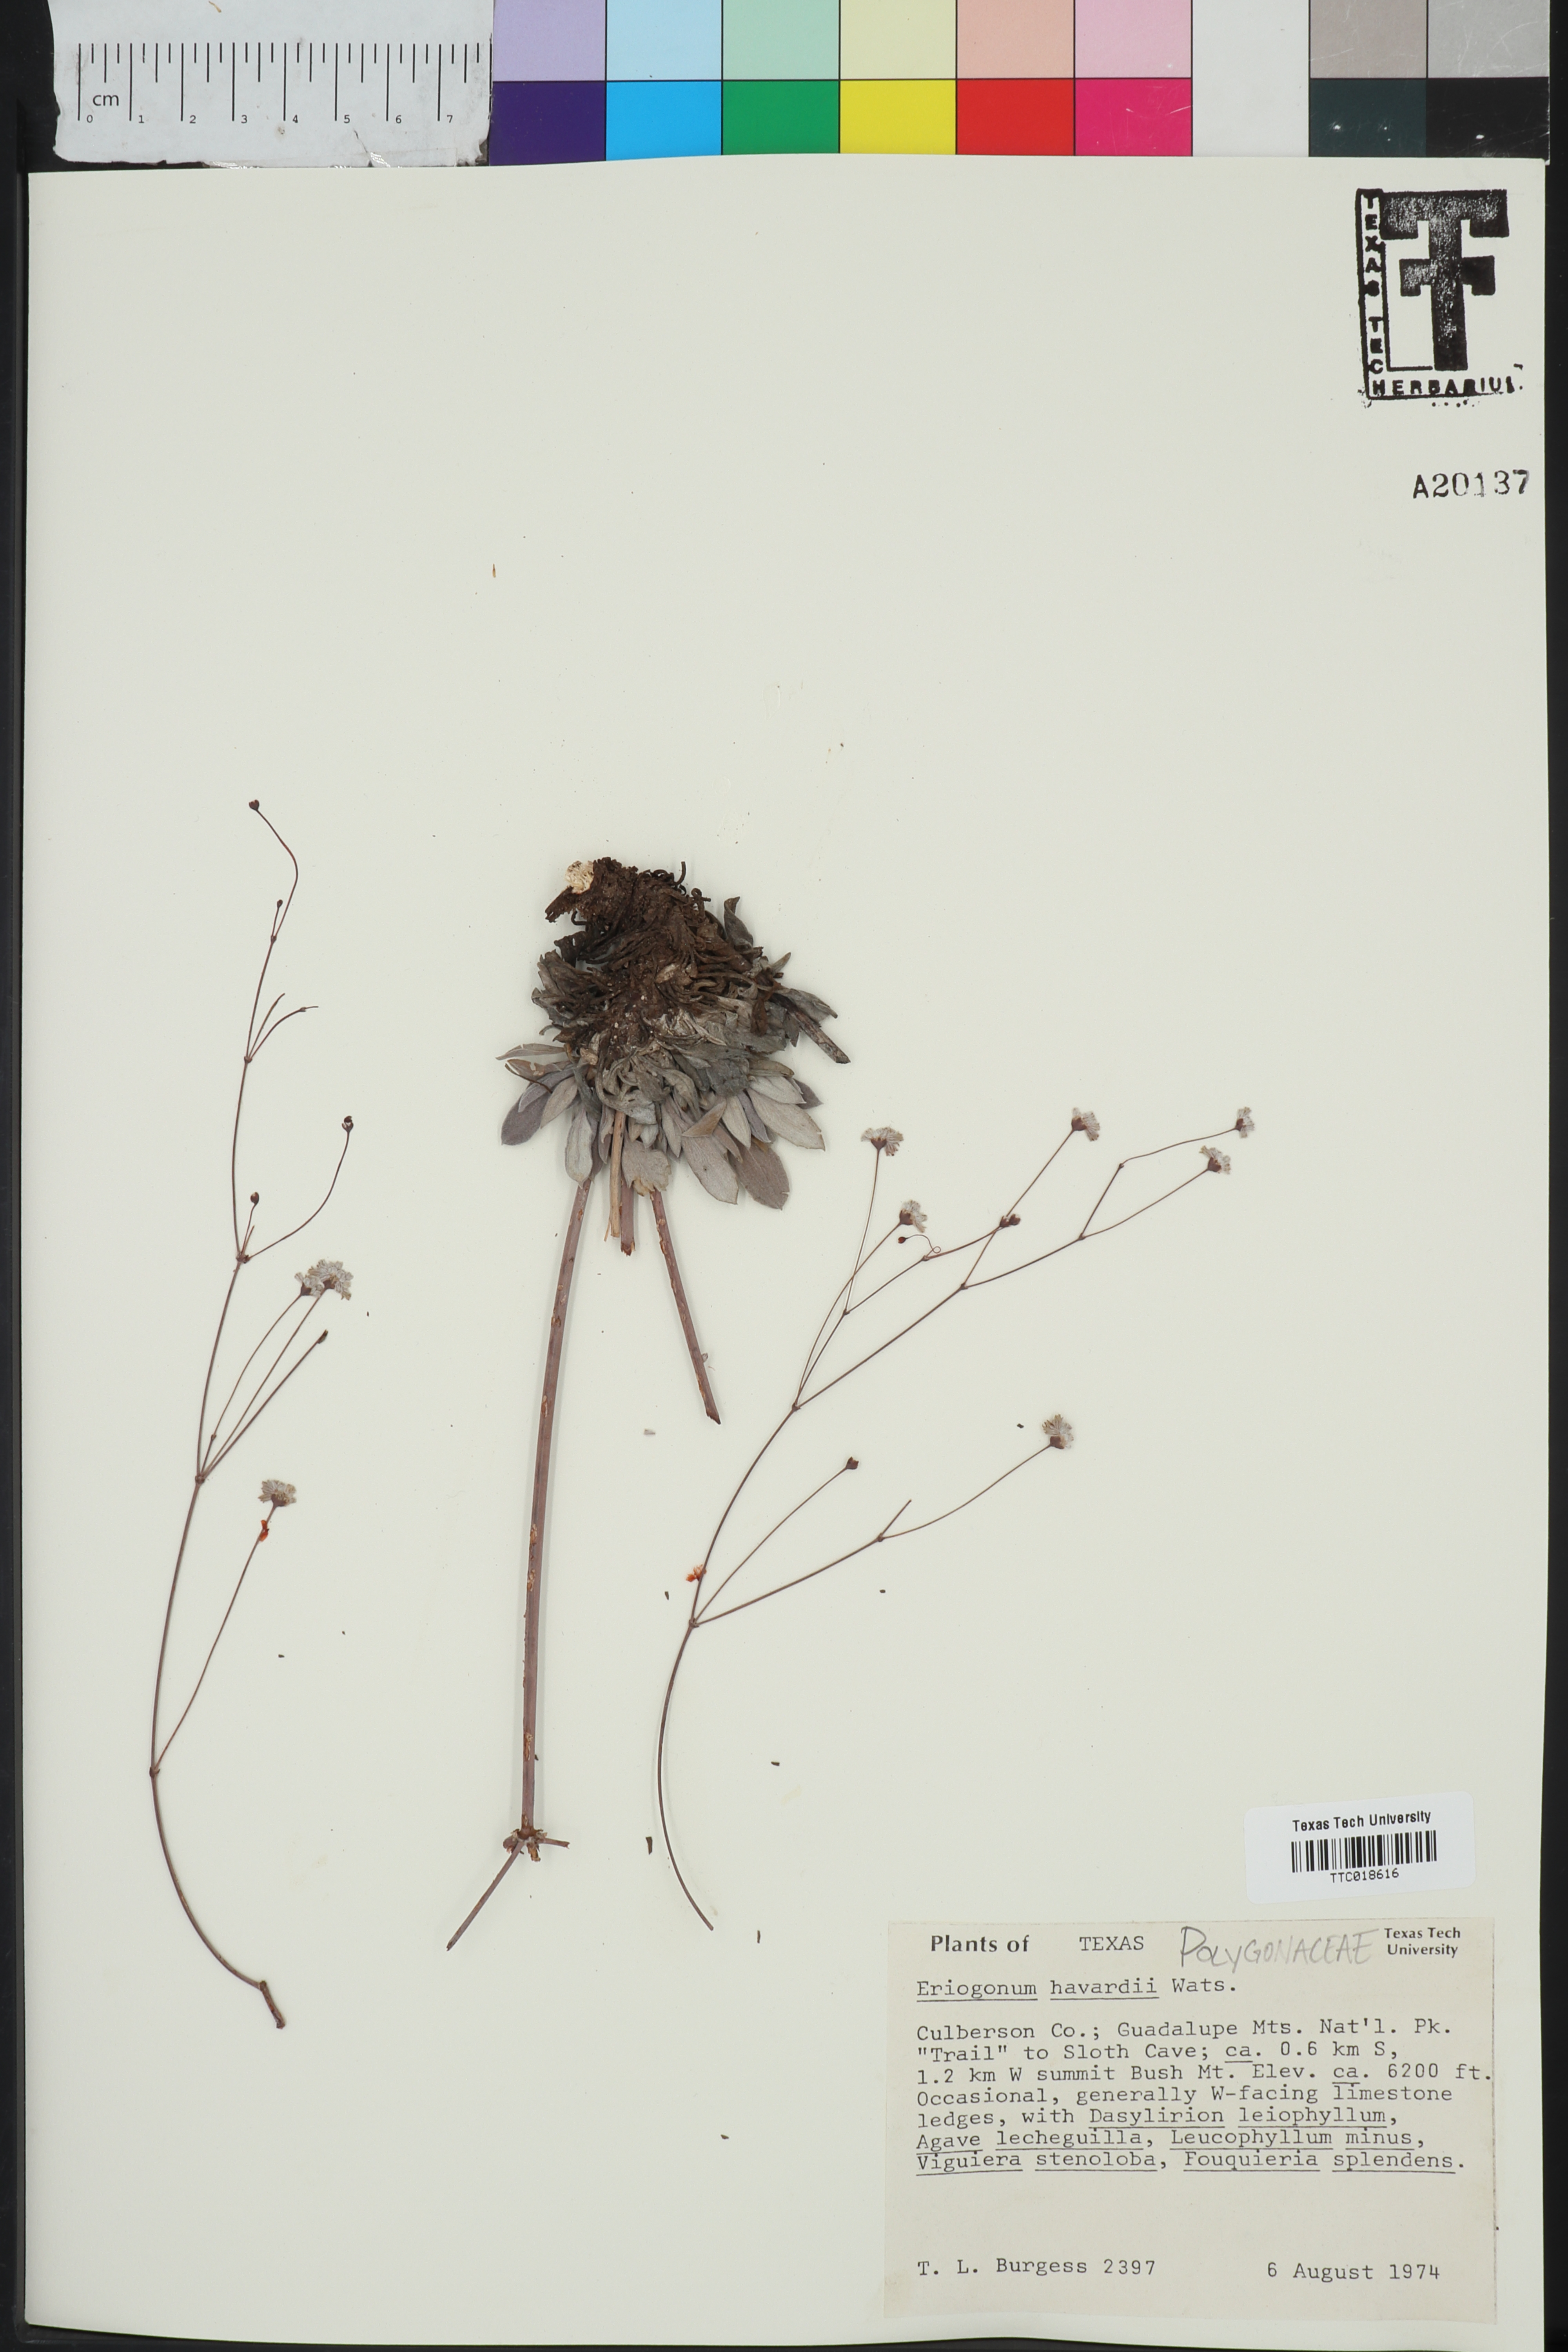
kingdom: Plantae
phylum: Tracheophyta
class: Magnoliopsida
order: Caryophyllales
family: Polygonaceae
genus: Eriogonum
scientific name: Eriogonum havardii
